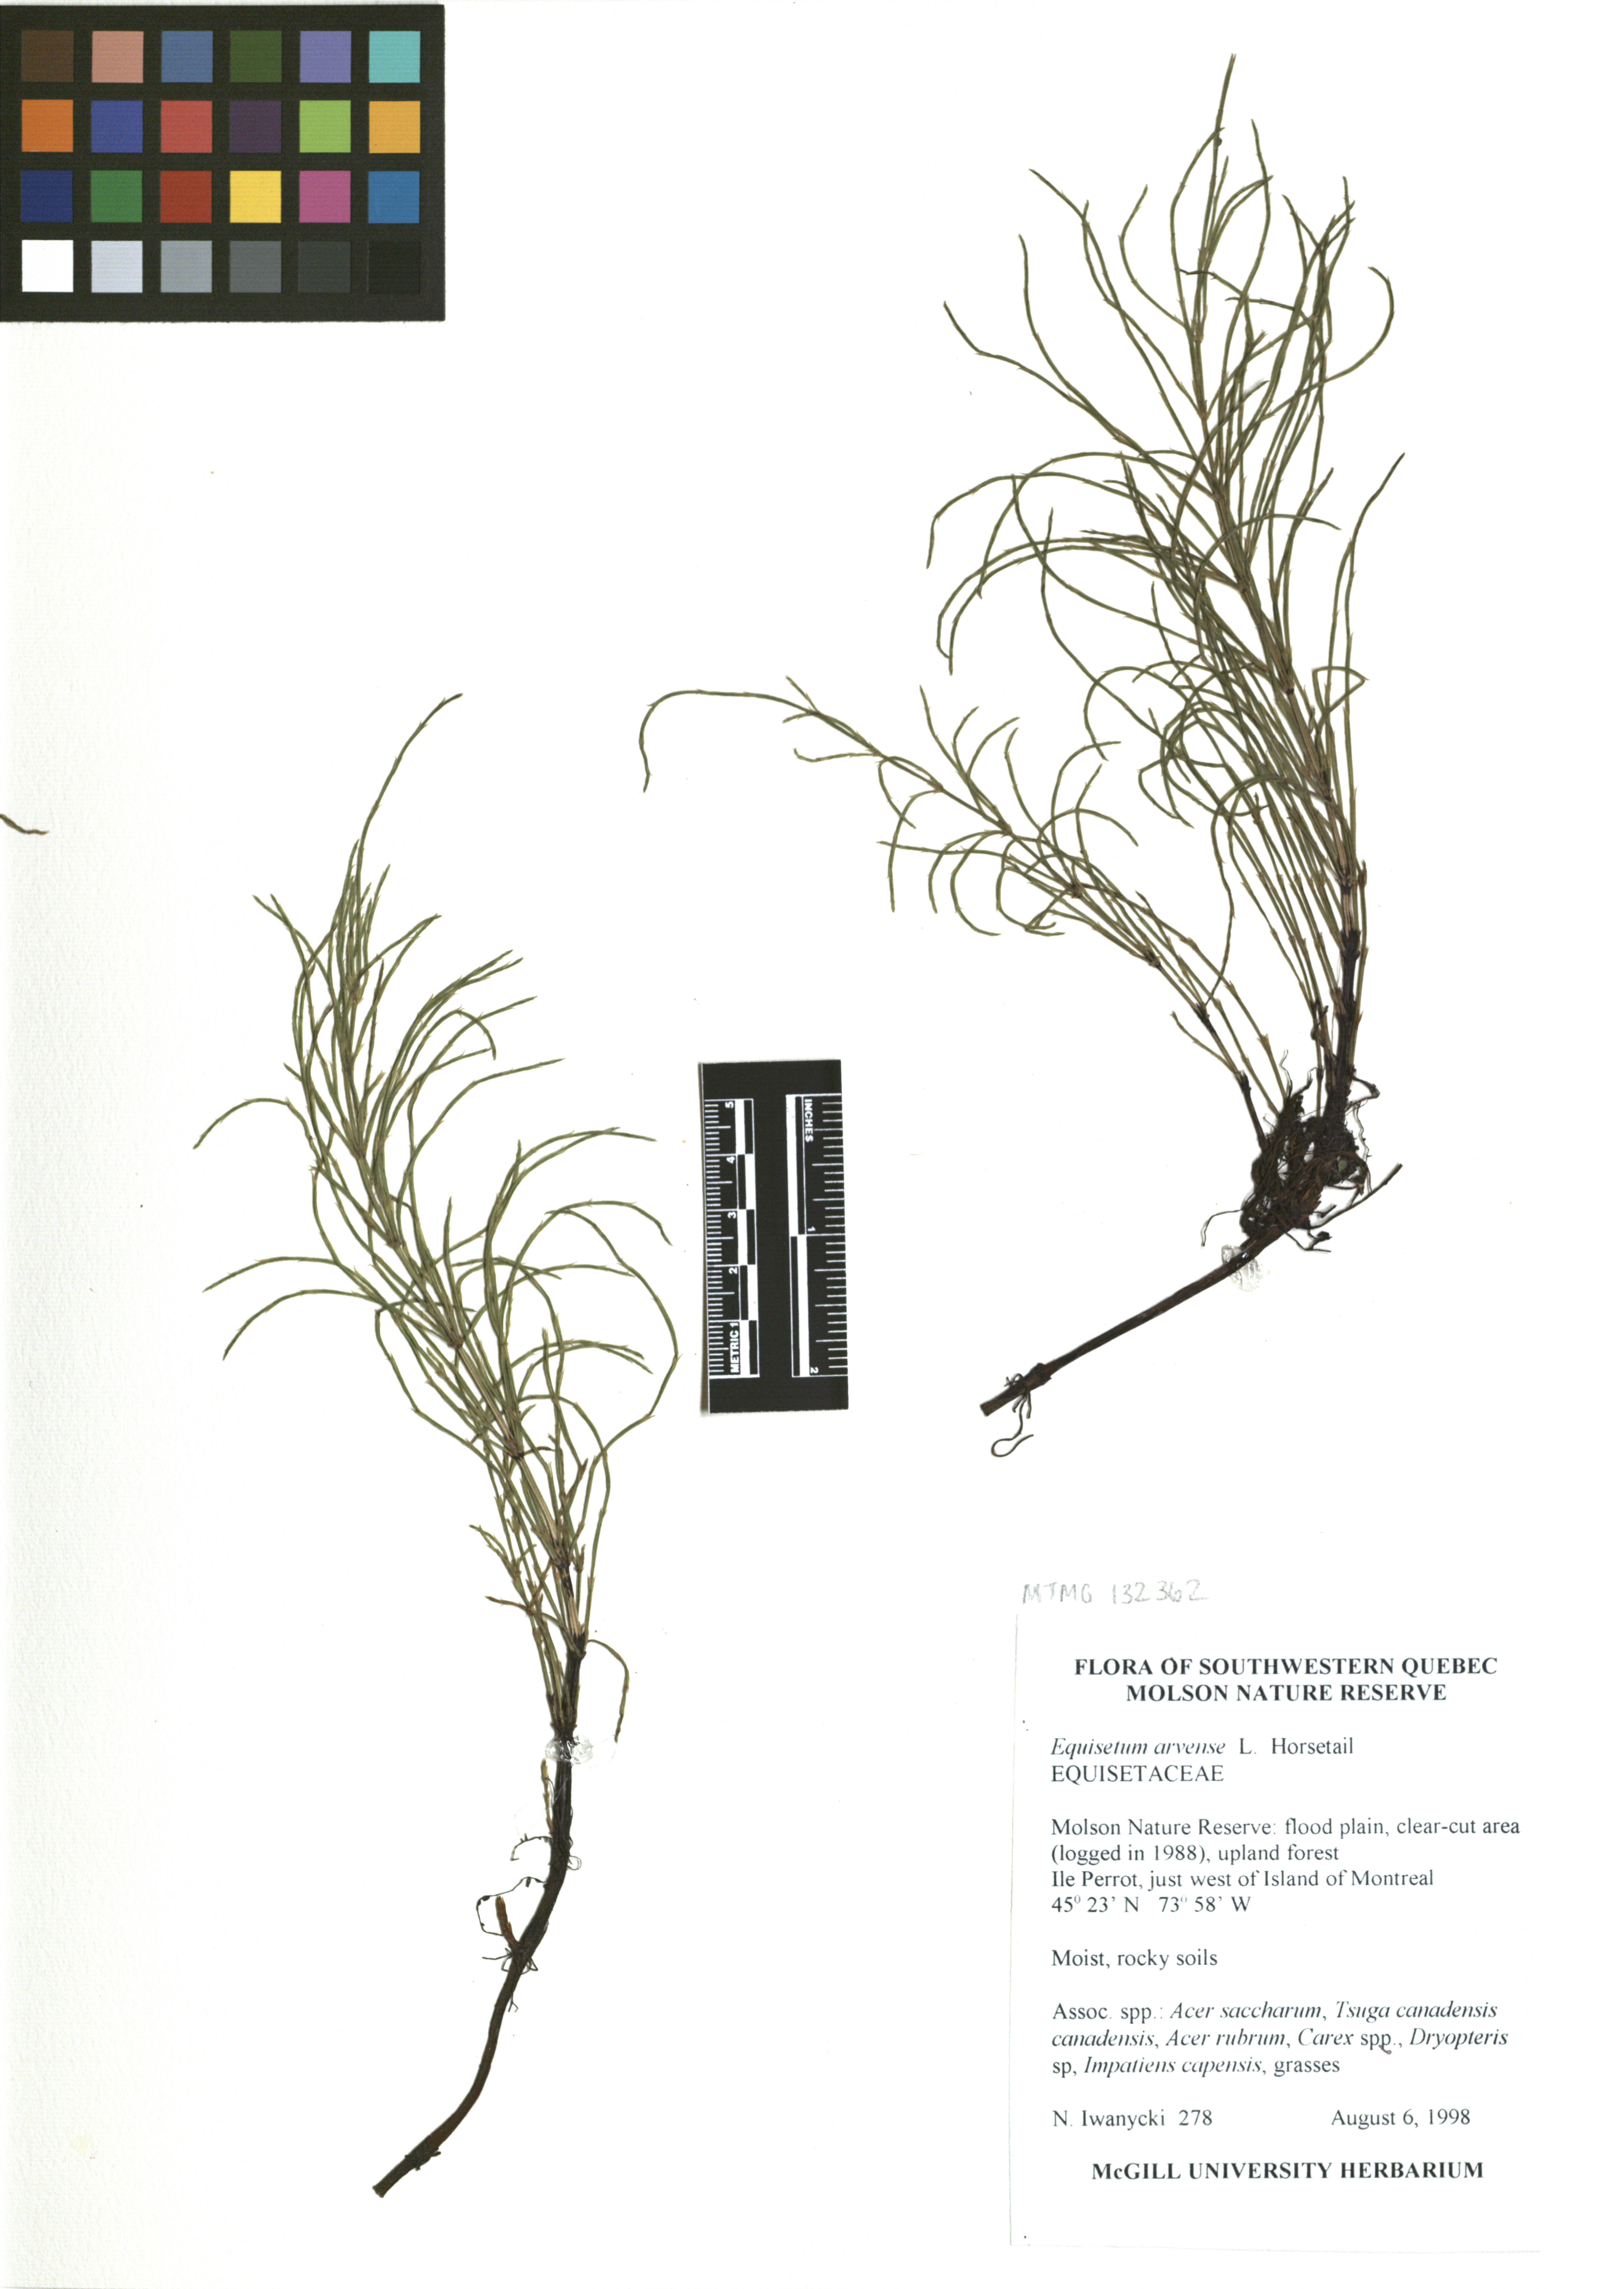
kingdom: Plantae
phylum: Tracheophyta
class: Polypodiopsida
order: Equisetales
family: Equisetaceae
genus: Equisetum
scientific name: Equisetum arvense
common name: Field horsetail
